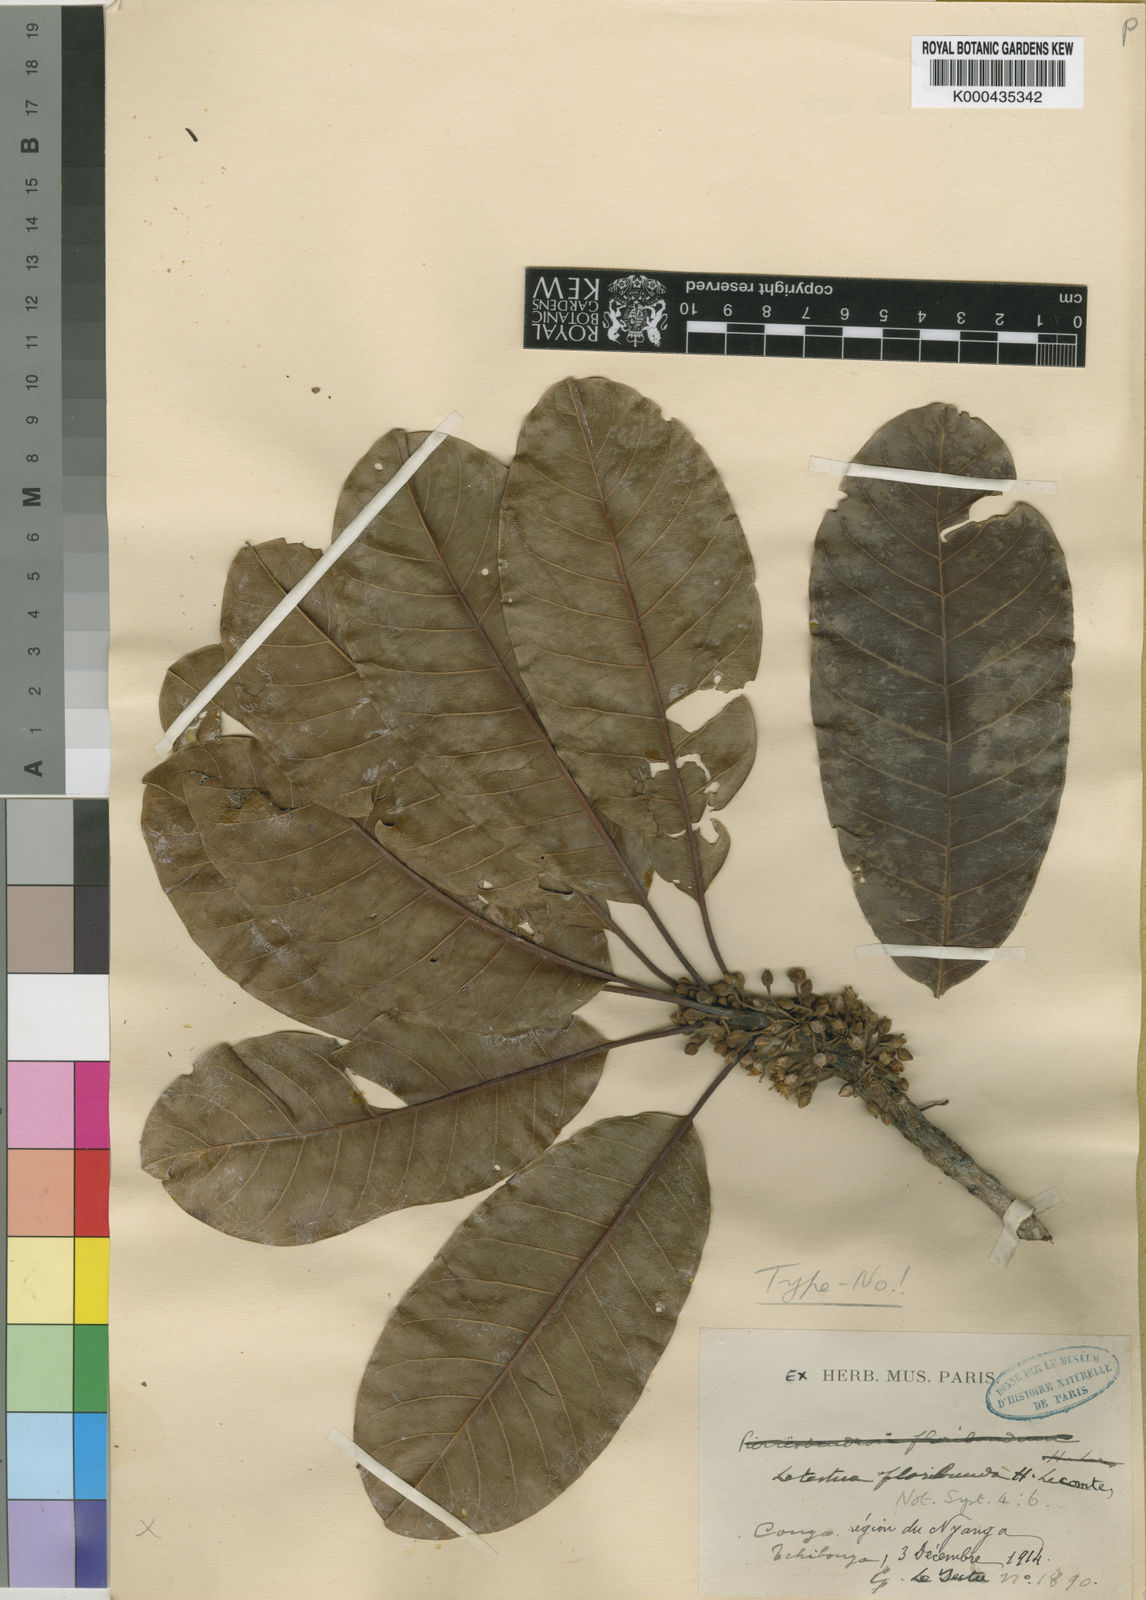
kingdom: Plantae
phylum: Tracheophyta
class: Magnoliopsida
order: Ericales
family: Sapotaceae
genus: Letestua
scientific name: Letestua durissima
